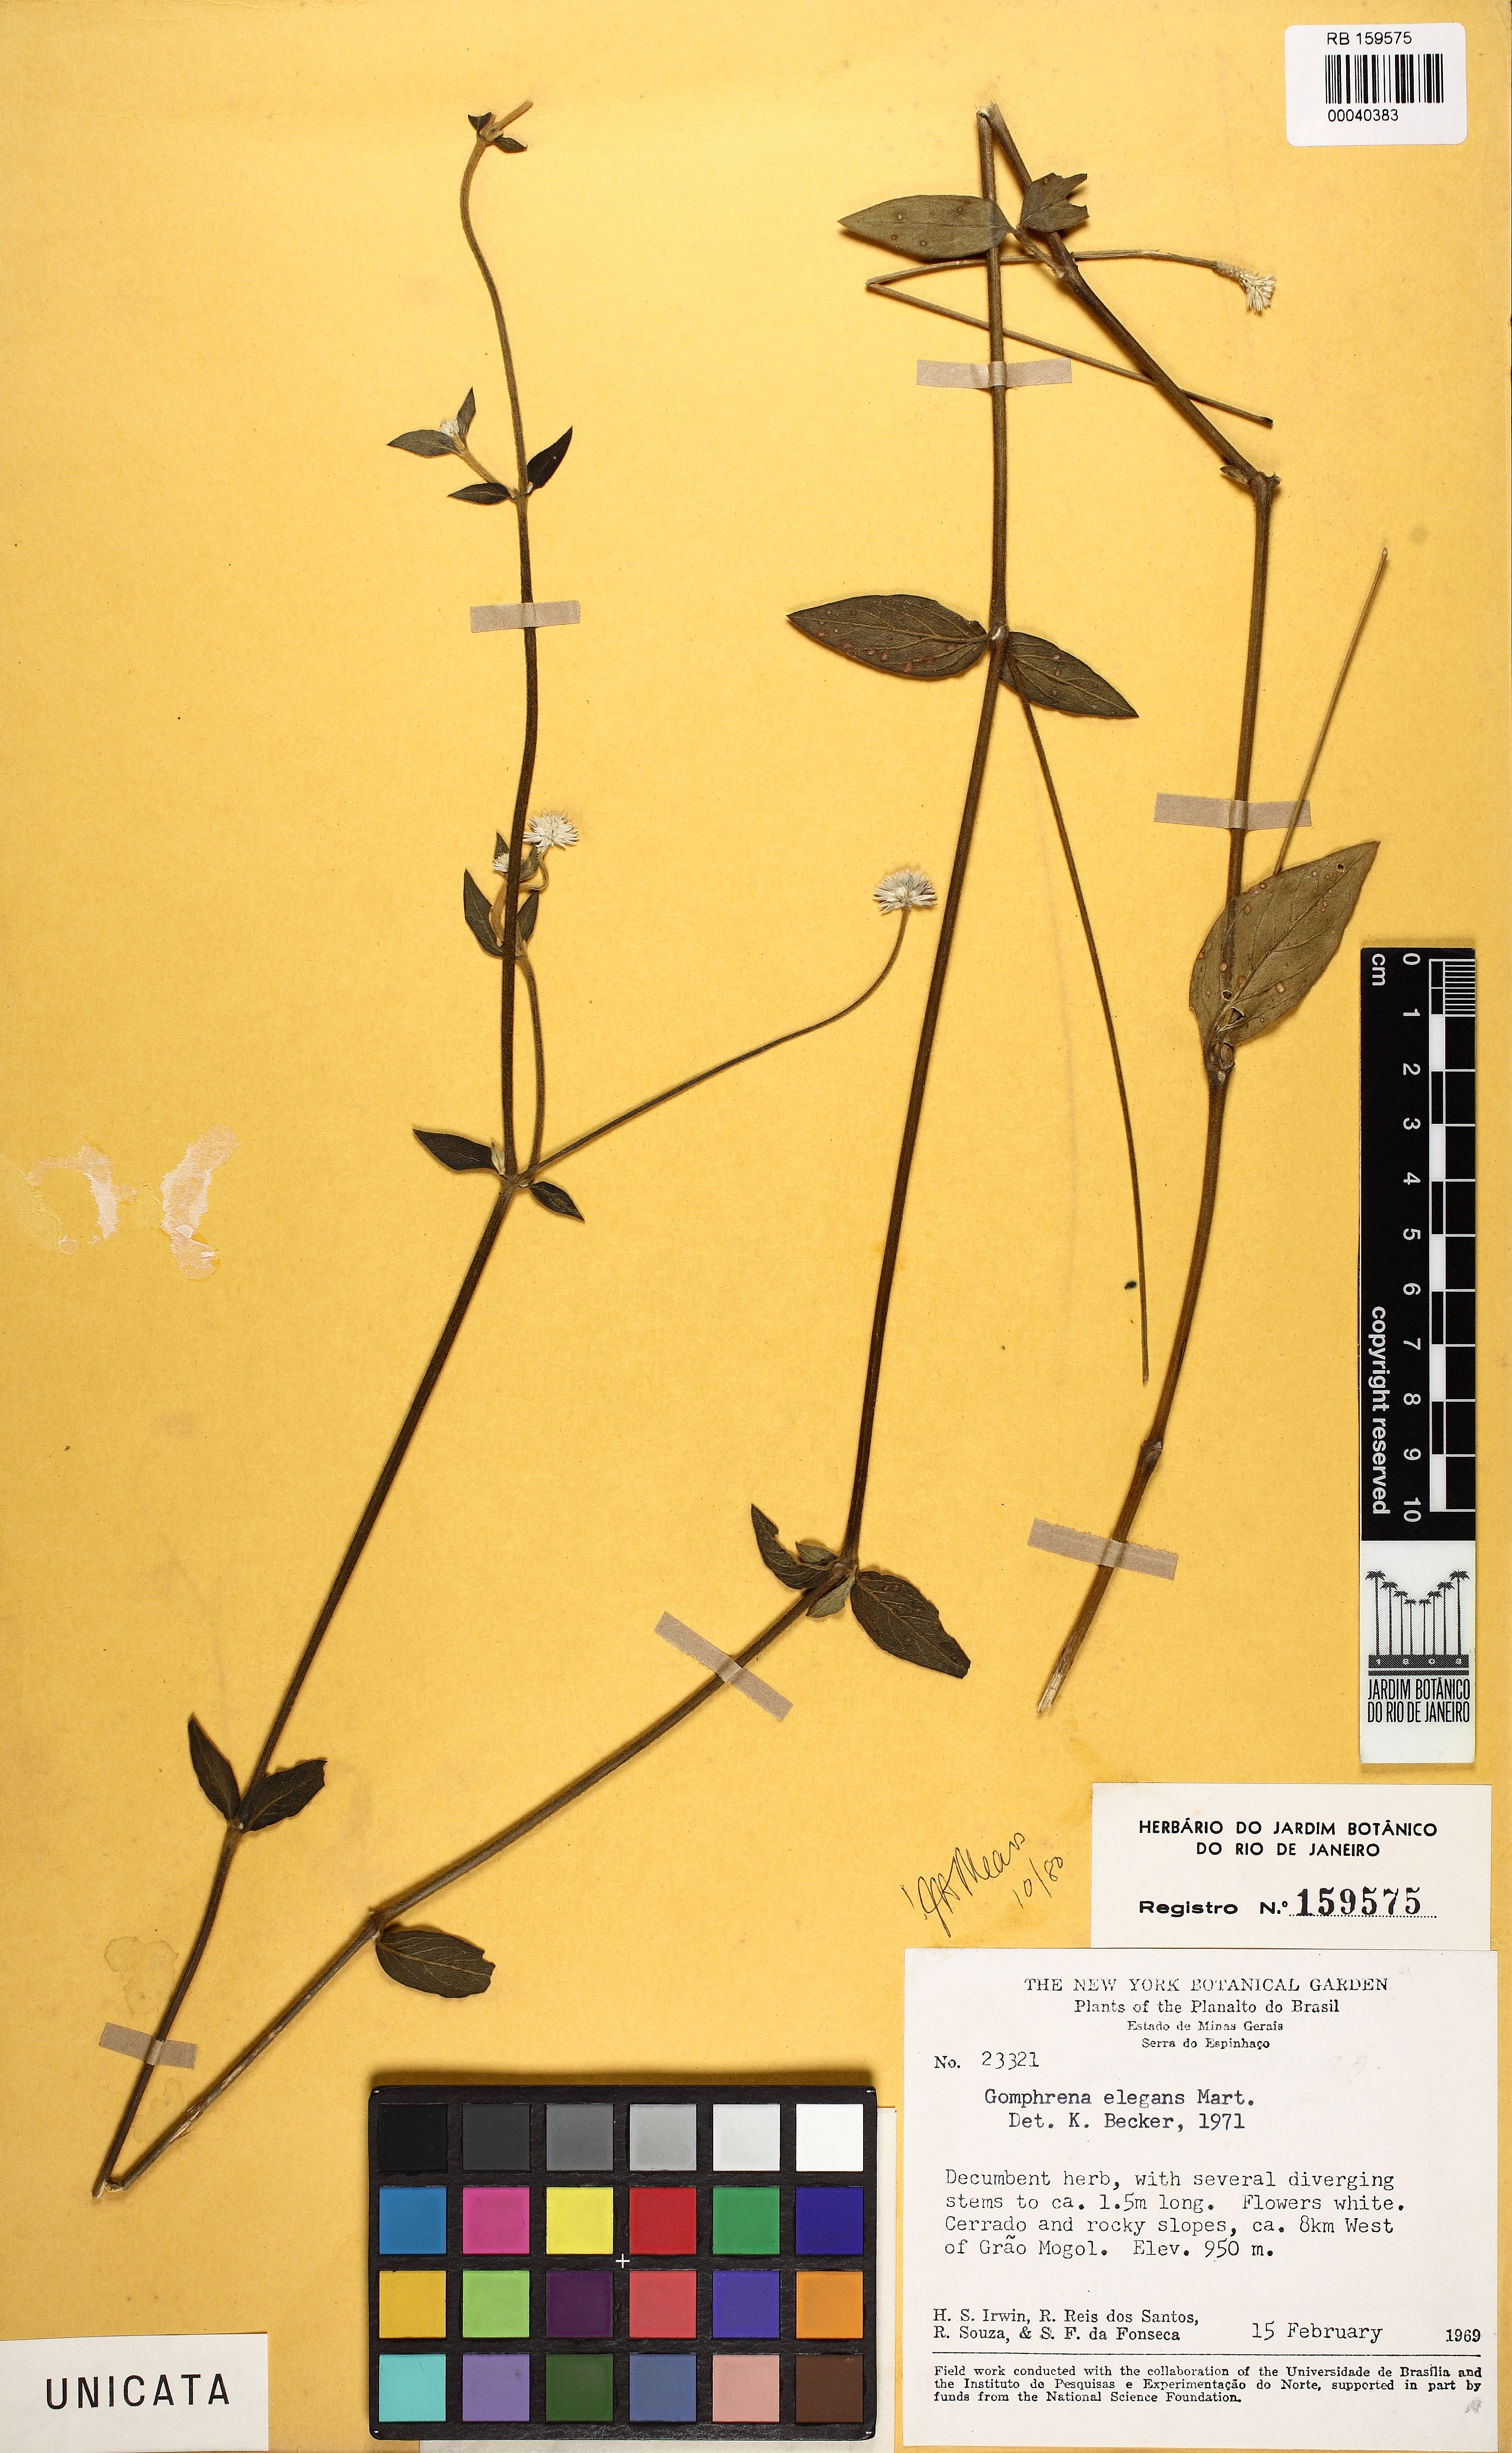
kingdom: Plantae
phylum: Tracheophyta
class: Magnoliopsida
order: Caryophyllales
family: Amaranthaceae
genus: Gomphrena
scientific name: Gomphrena elegans
